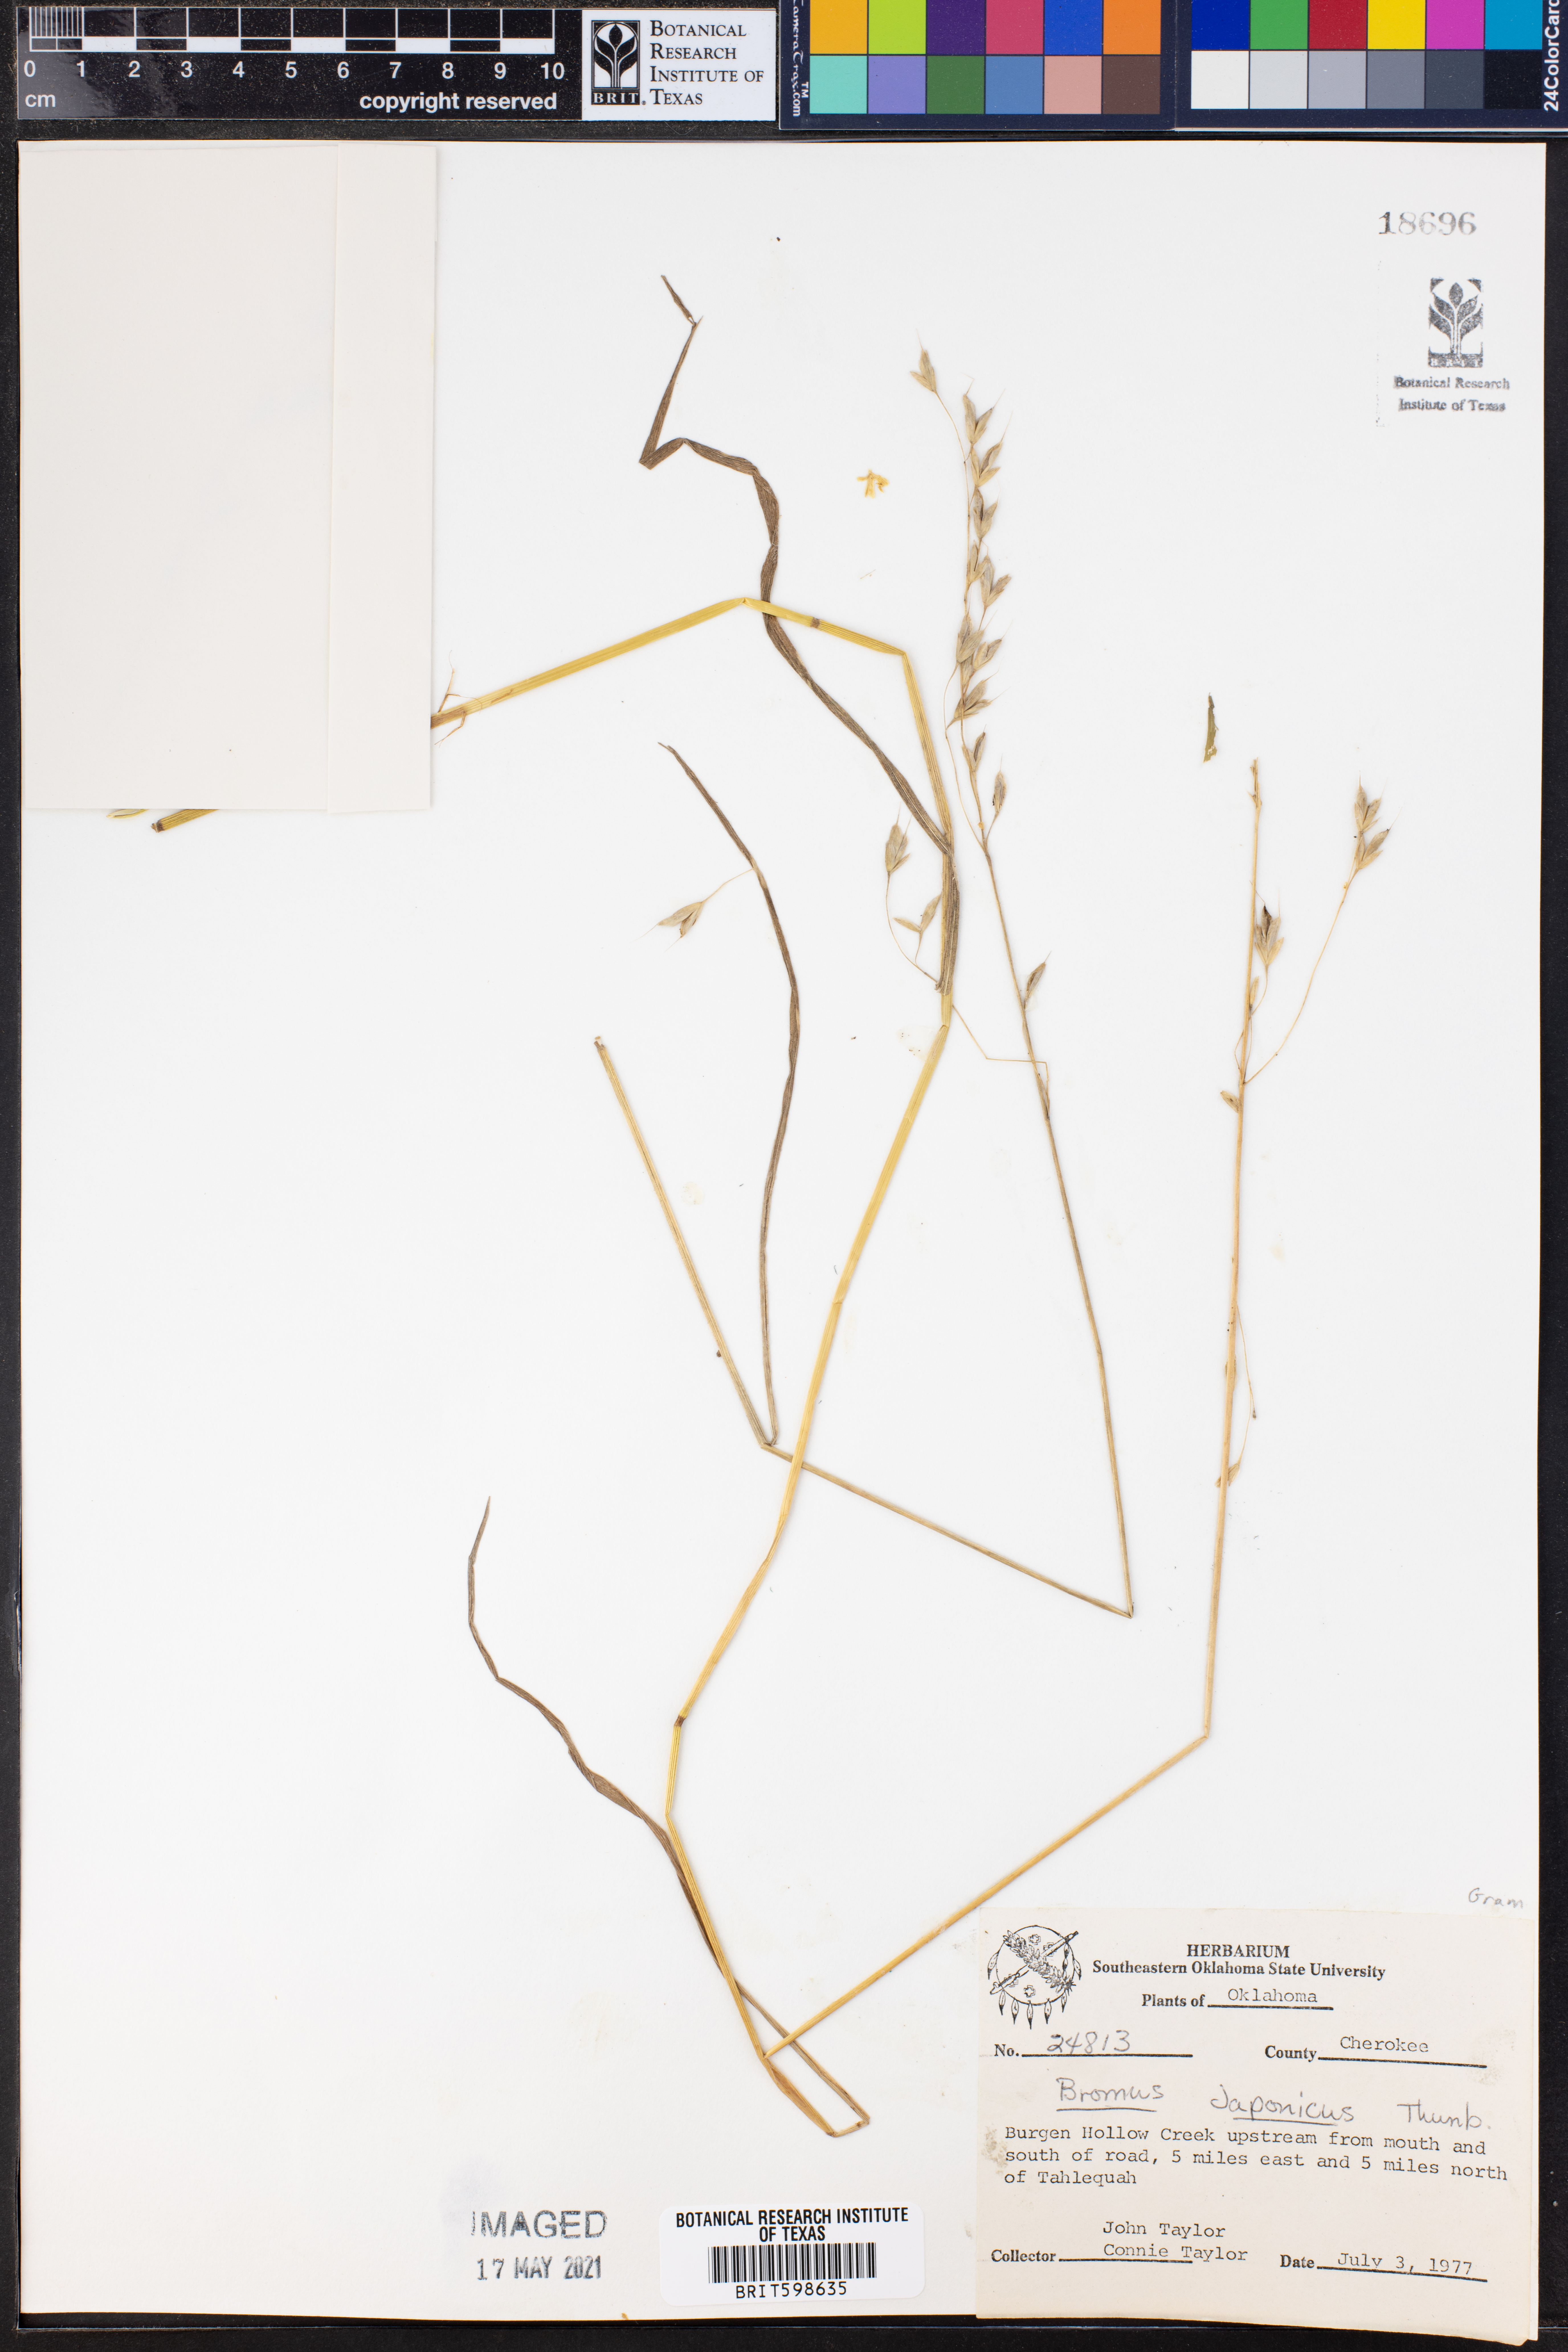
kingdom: Plantae
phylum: Tracheophyta
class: Liliopsida
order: Poales
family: Poaceae
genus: Bromus
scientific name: Bromus japonicus
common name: Japanese brome
